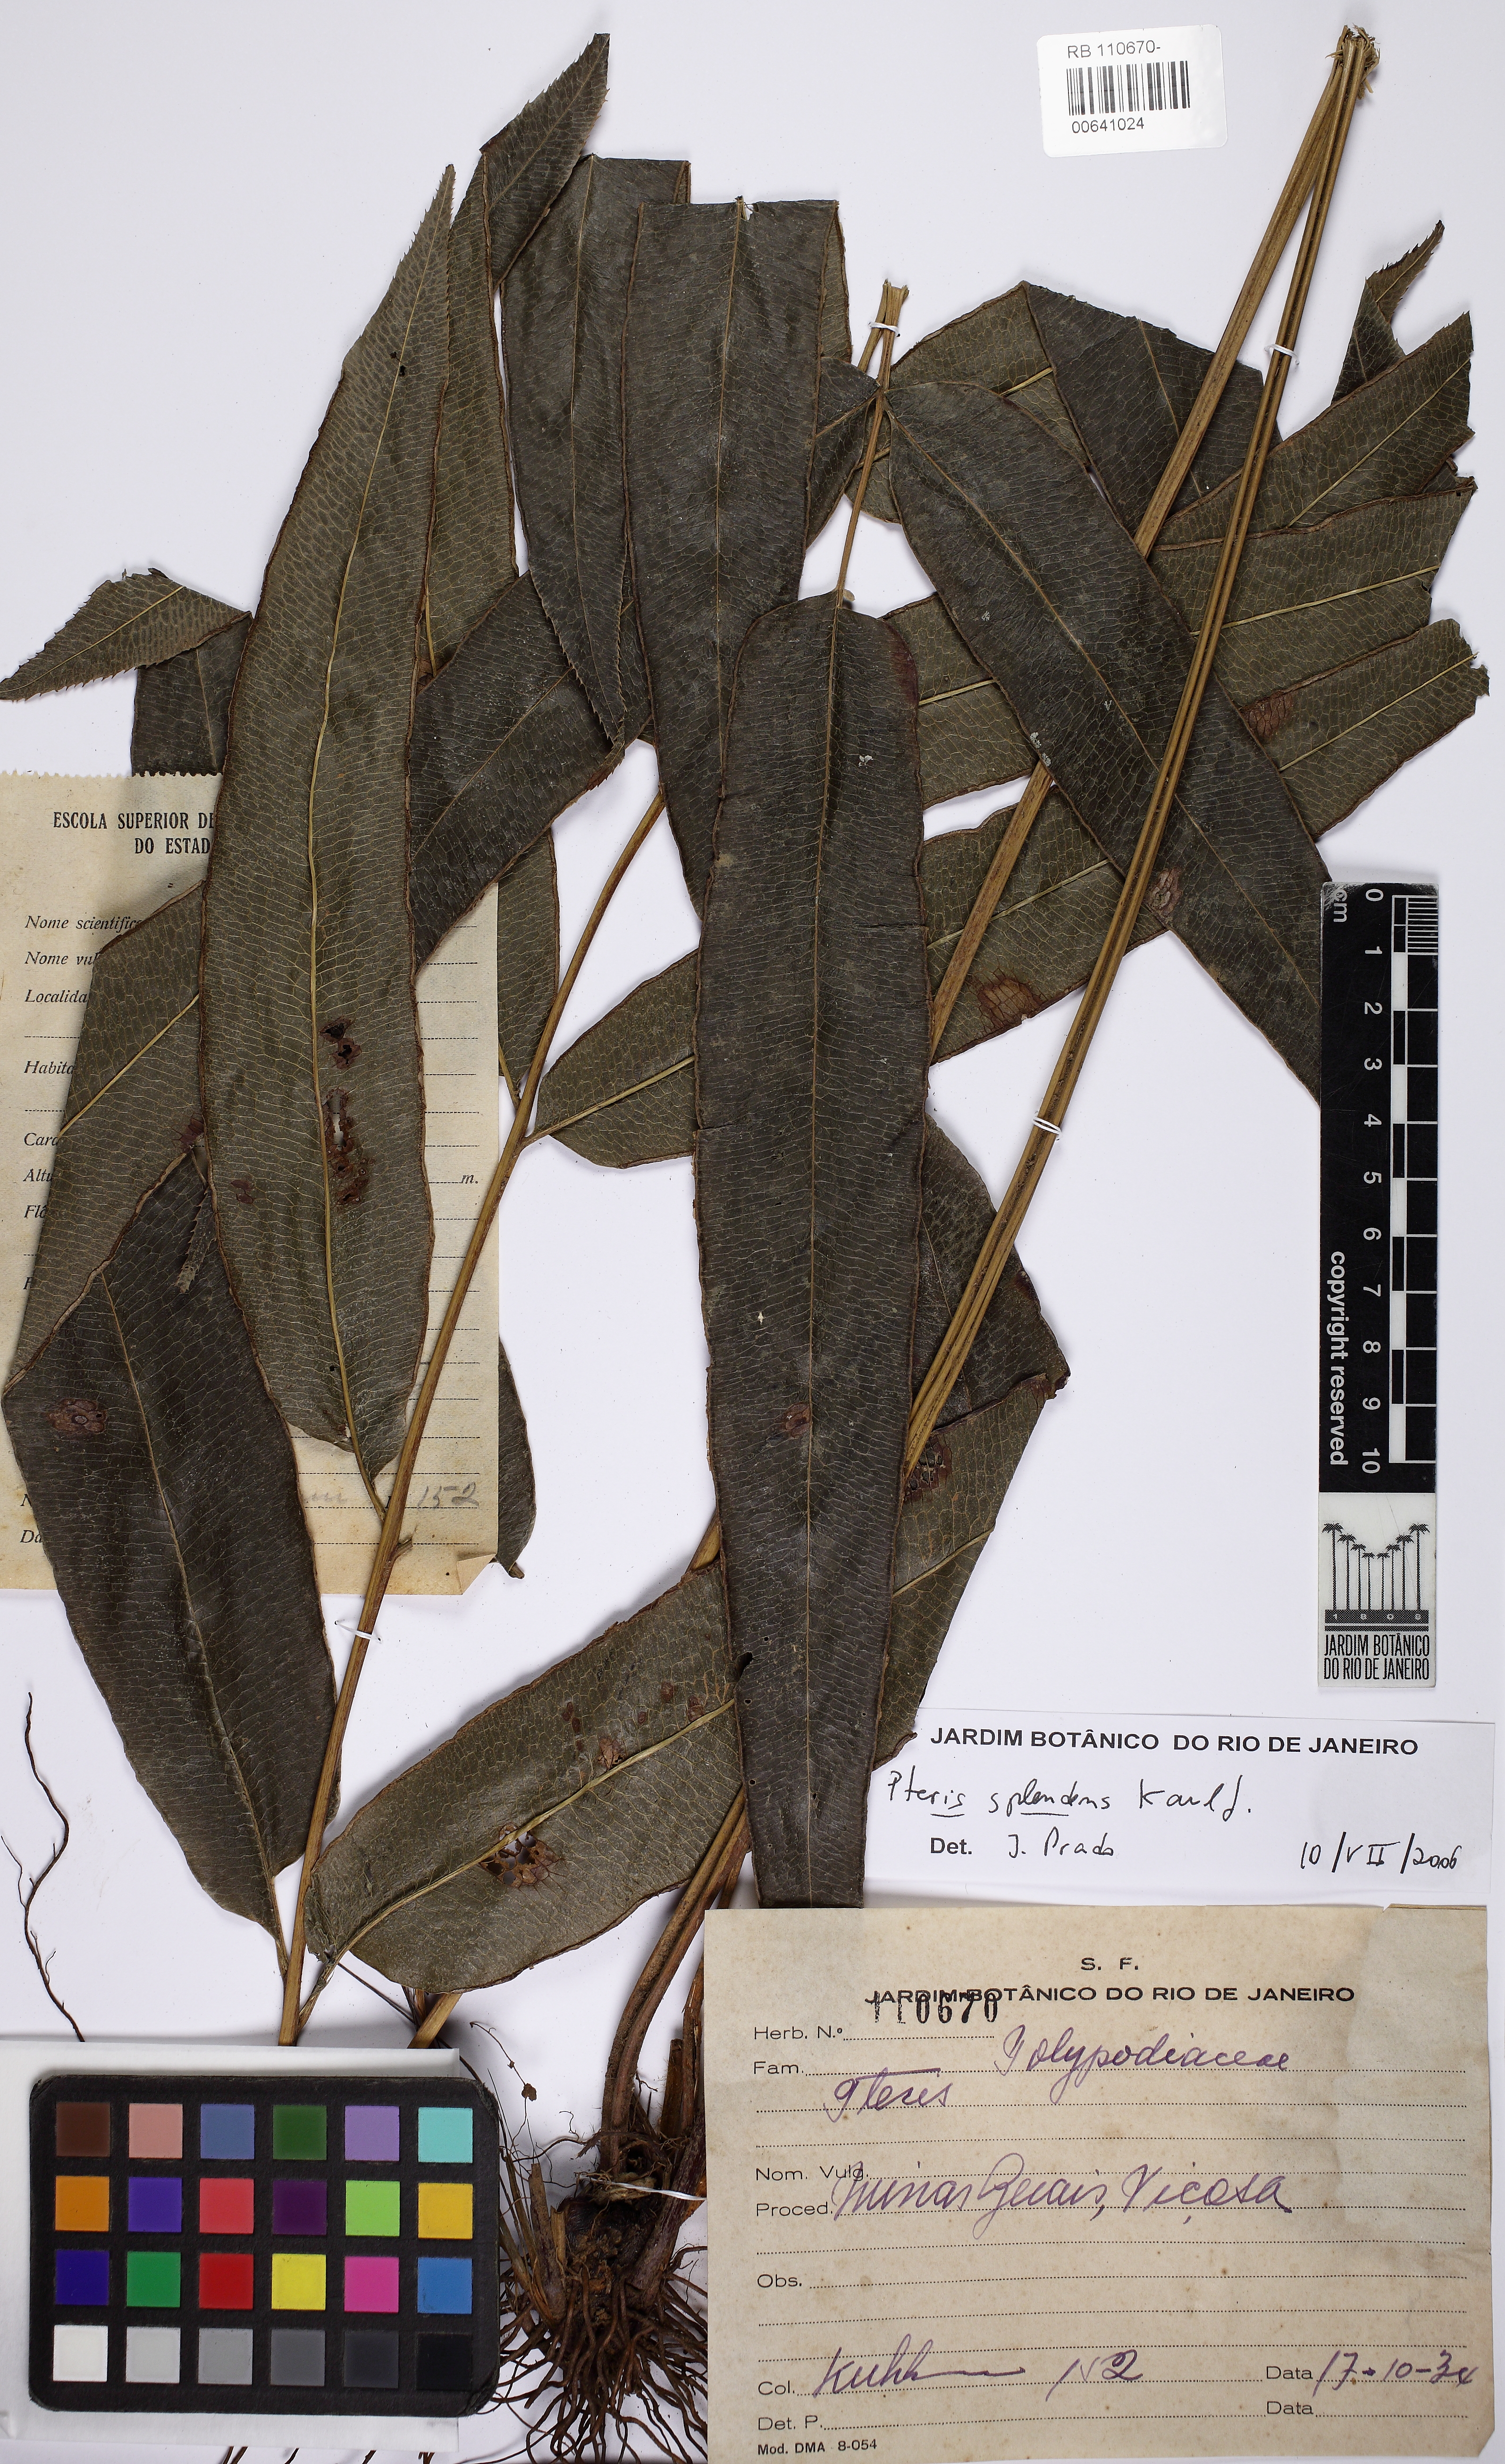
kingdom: Plantae
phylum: Tracheophyta
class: Polypodiopsida
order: Polypodiales
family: Pteridaceae
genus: Pteris
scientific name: Pteris splendens
